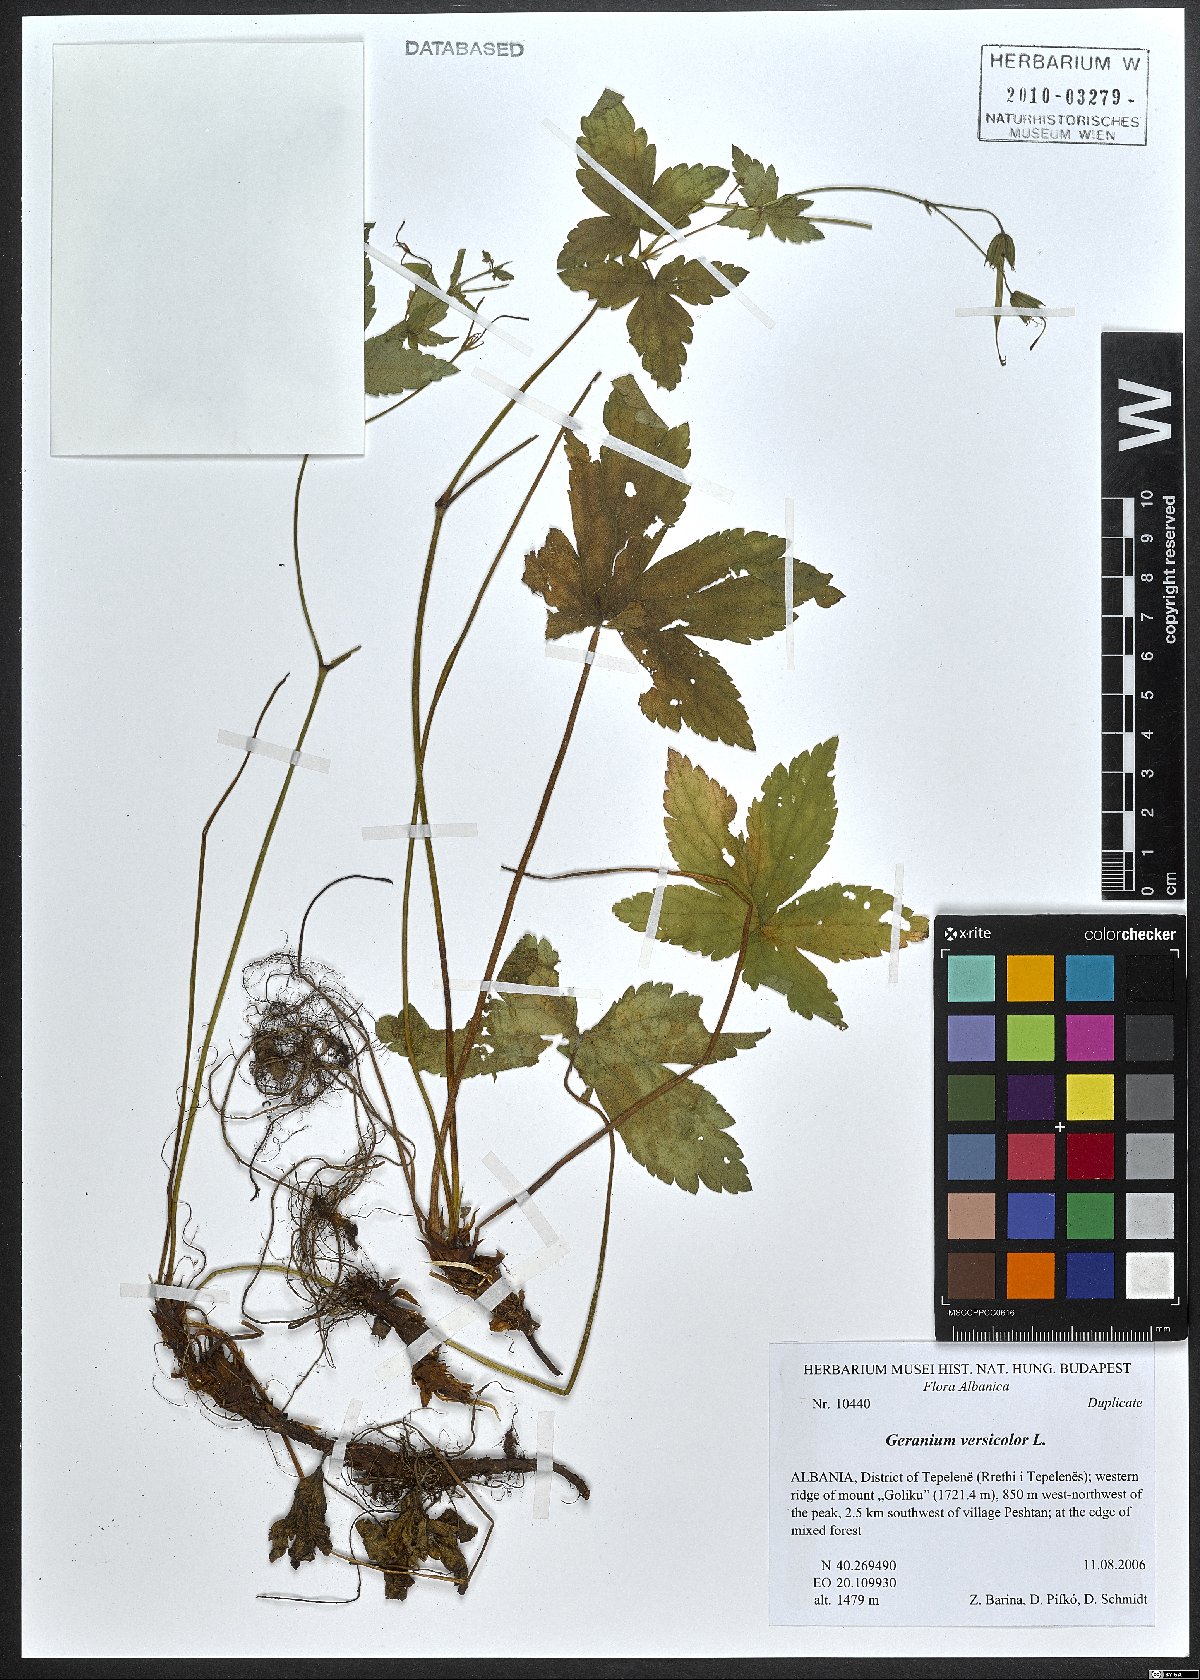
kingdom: Plantae
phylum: Tracheophyta
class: Magnoliopsida
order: Geraniales
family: Geraniaceae
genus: Geranium
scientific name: Geranium versicolor
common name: Pencilled crane's-bill
